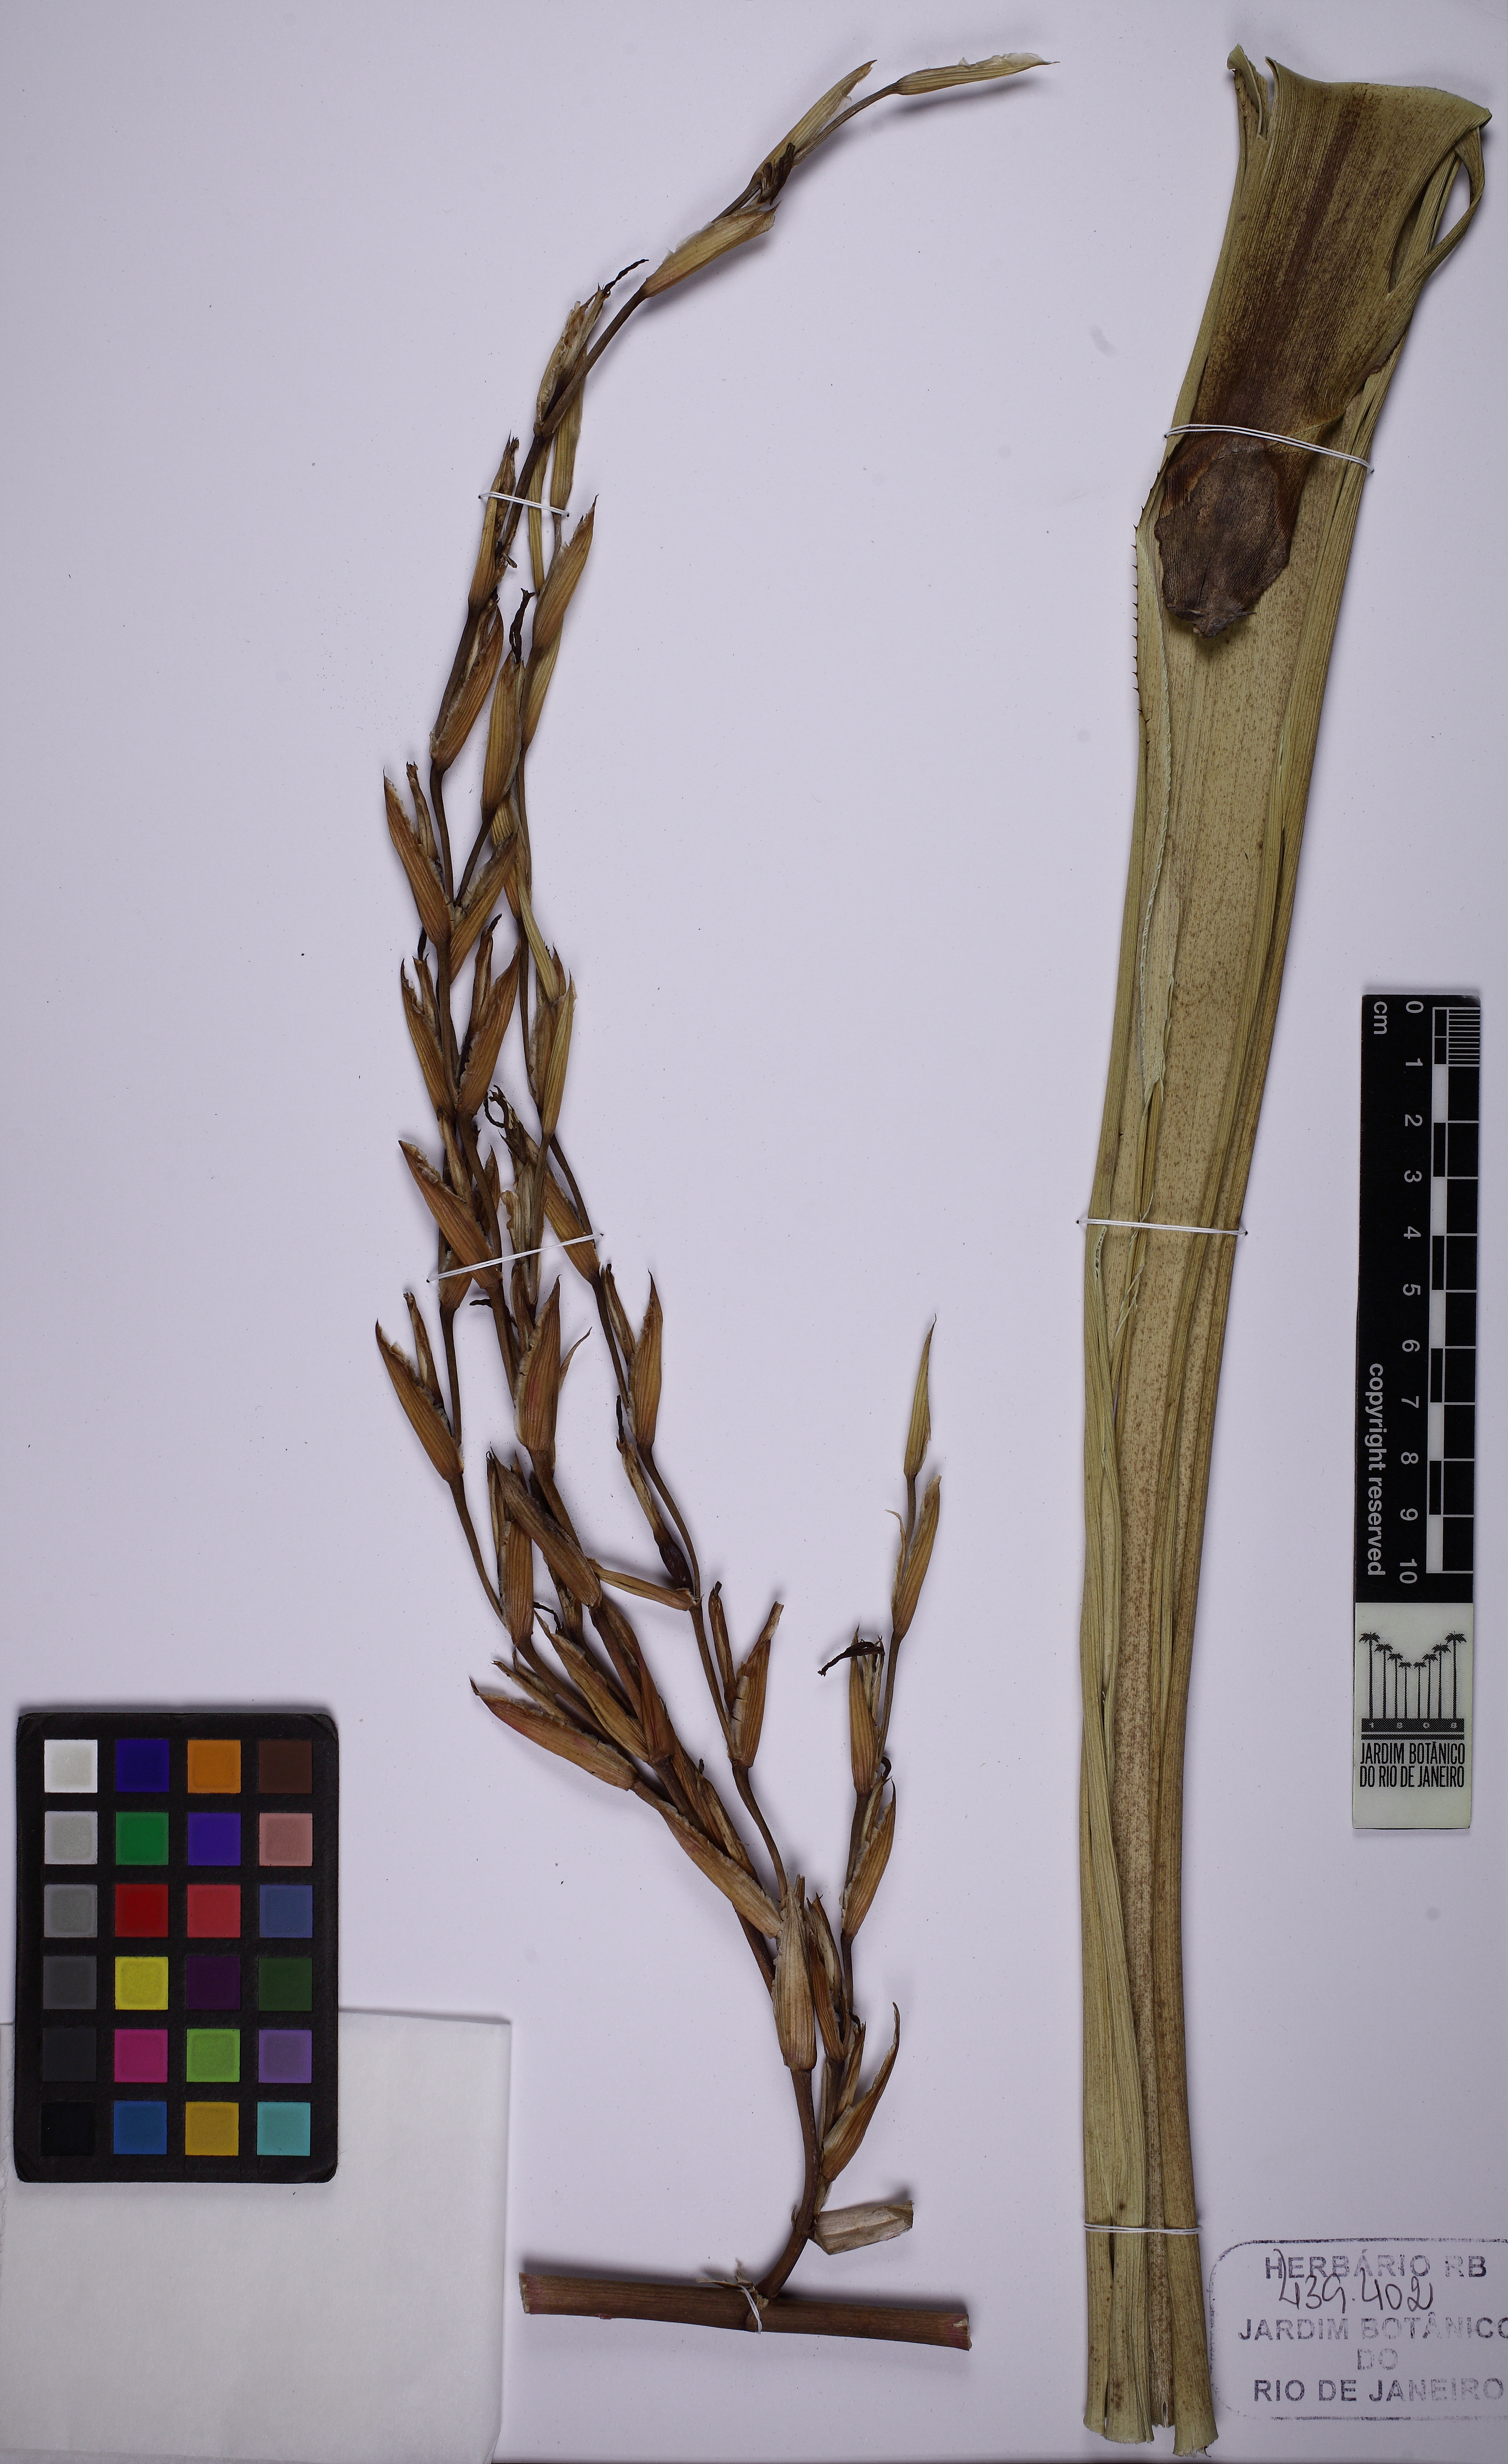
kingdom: Plantae
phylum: Tracheophyta
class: Liliopsida
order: Poales
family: Bromeliaceae
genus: Aechmea
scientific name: Aechmea blanchetiana
